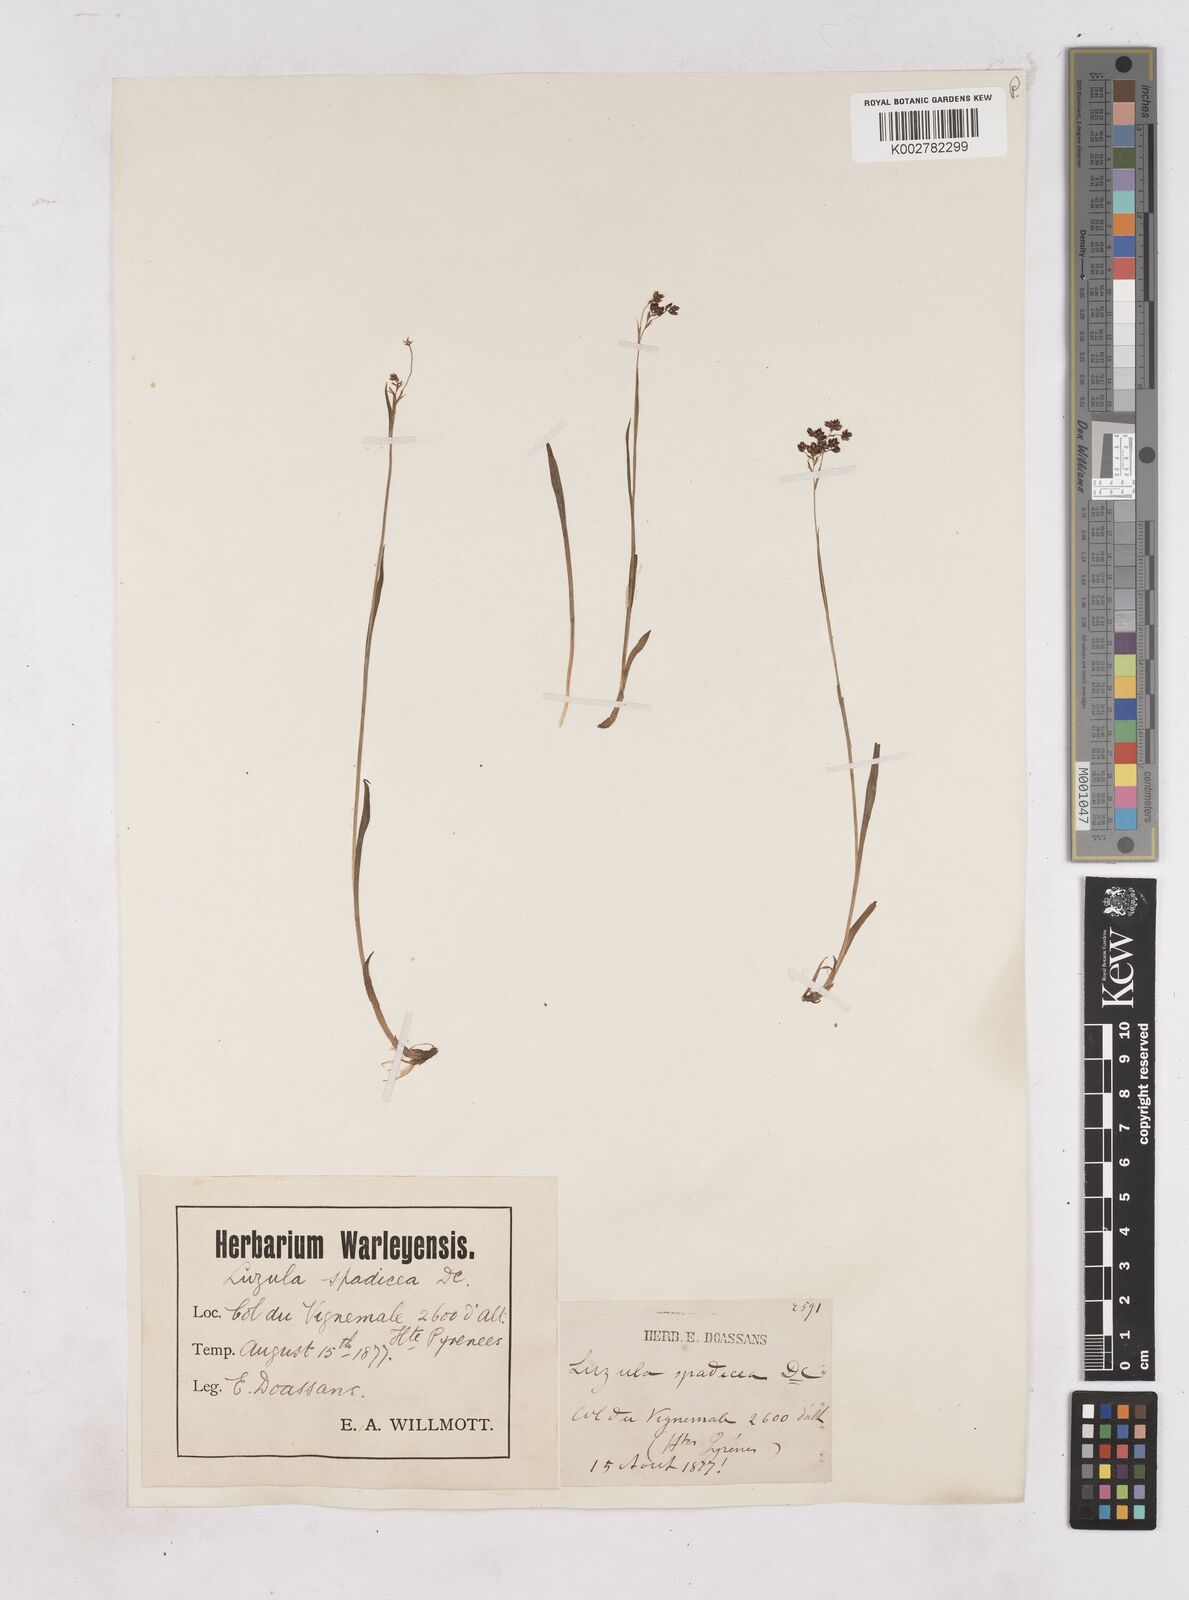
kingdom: Plantae
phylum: Tracheophyta
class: Liliopsida
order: Poales
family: Juncaceae
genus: Luzula
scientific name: Luzula alpinopilosa
